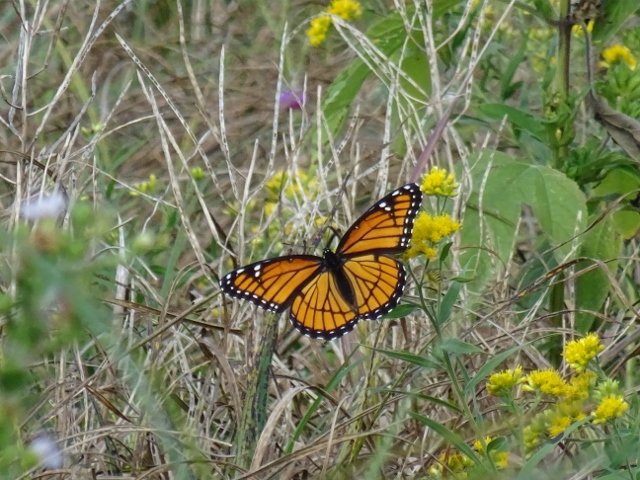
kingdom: Animalia
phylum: Arthropoda
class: Insecta
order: Lepidoptera
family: Nymphalidae
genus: Limenitis
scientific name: Limenitis archippus
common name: Viceroy
